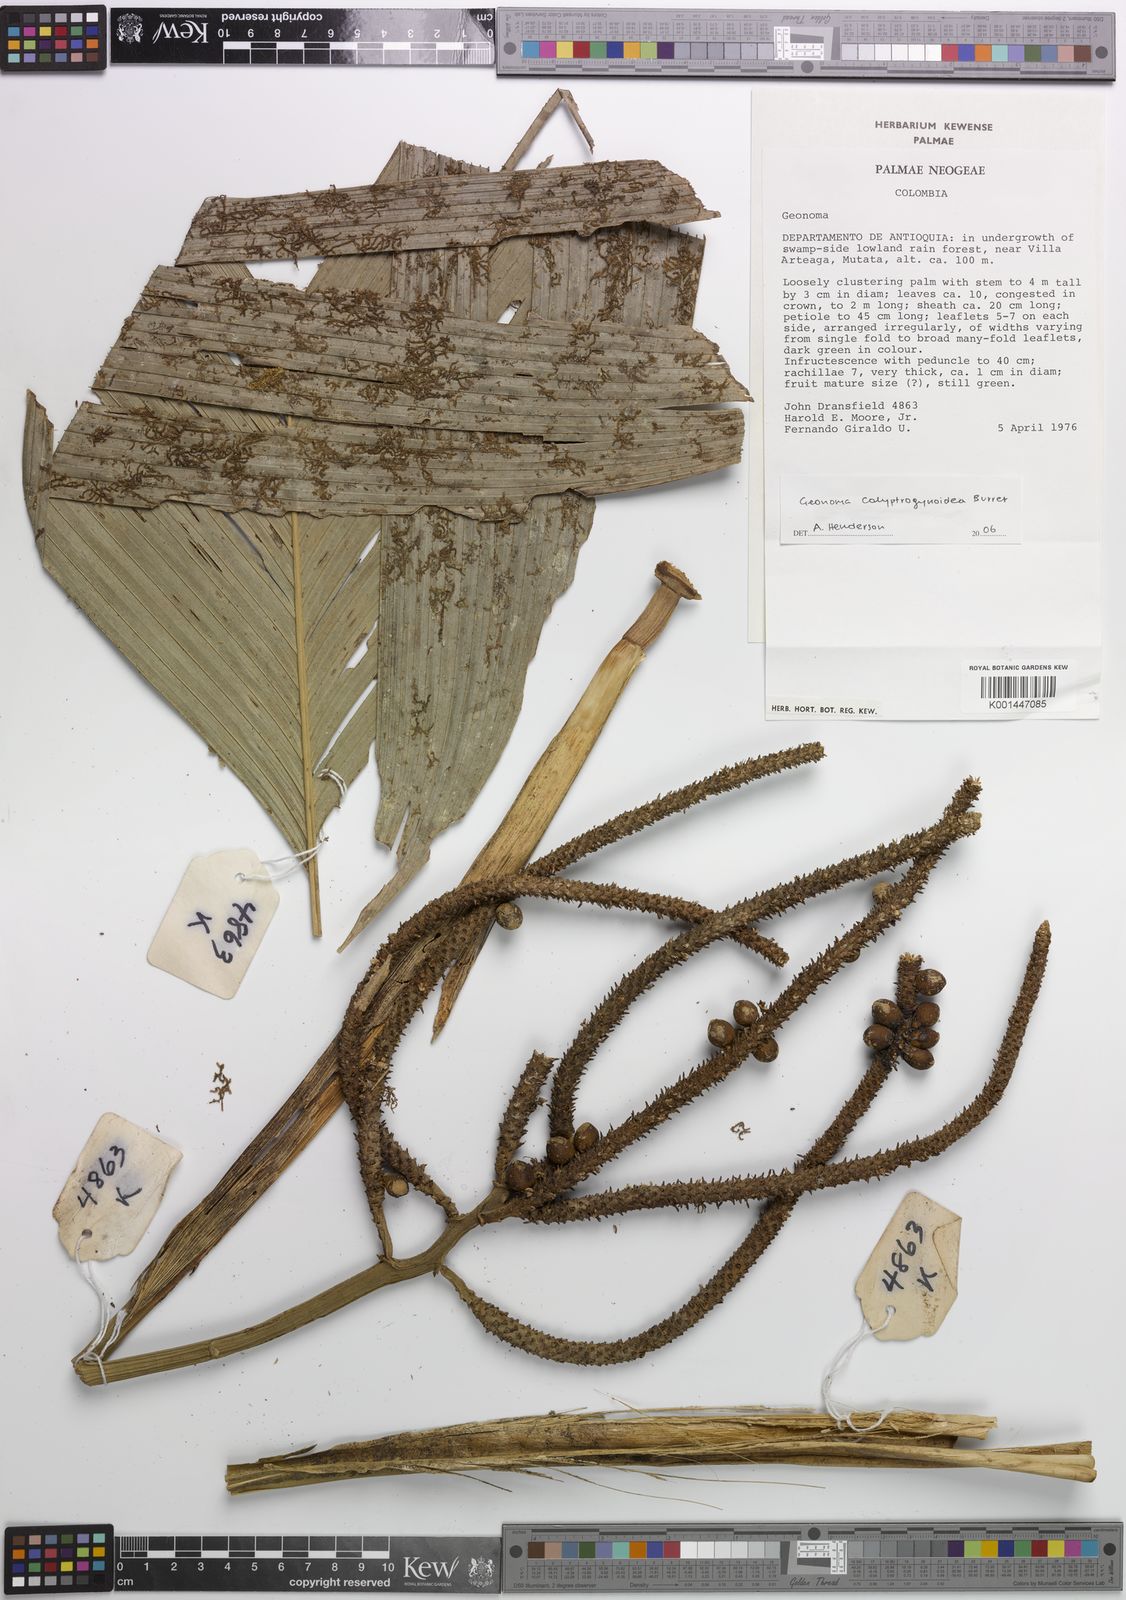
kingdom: Plantae
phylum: Tracheophyta
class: Liliopsida
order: Arecales
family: Arecaceae
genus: Geonoma
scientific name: Geonoma calyptrogynoidea
